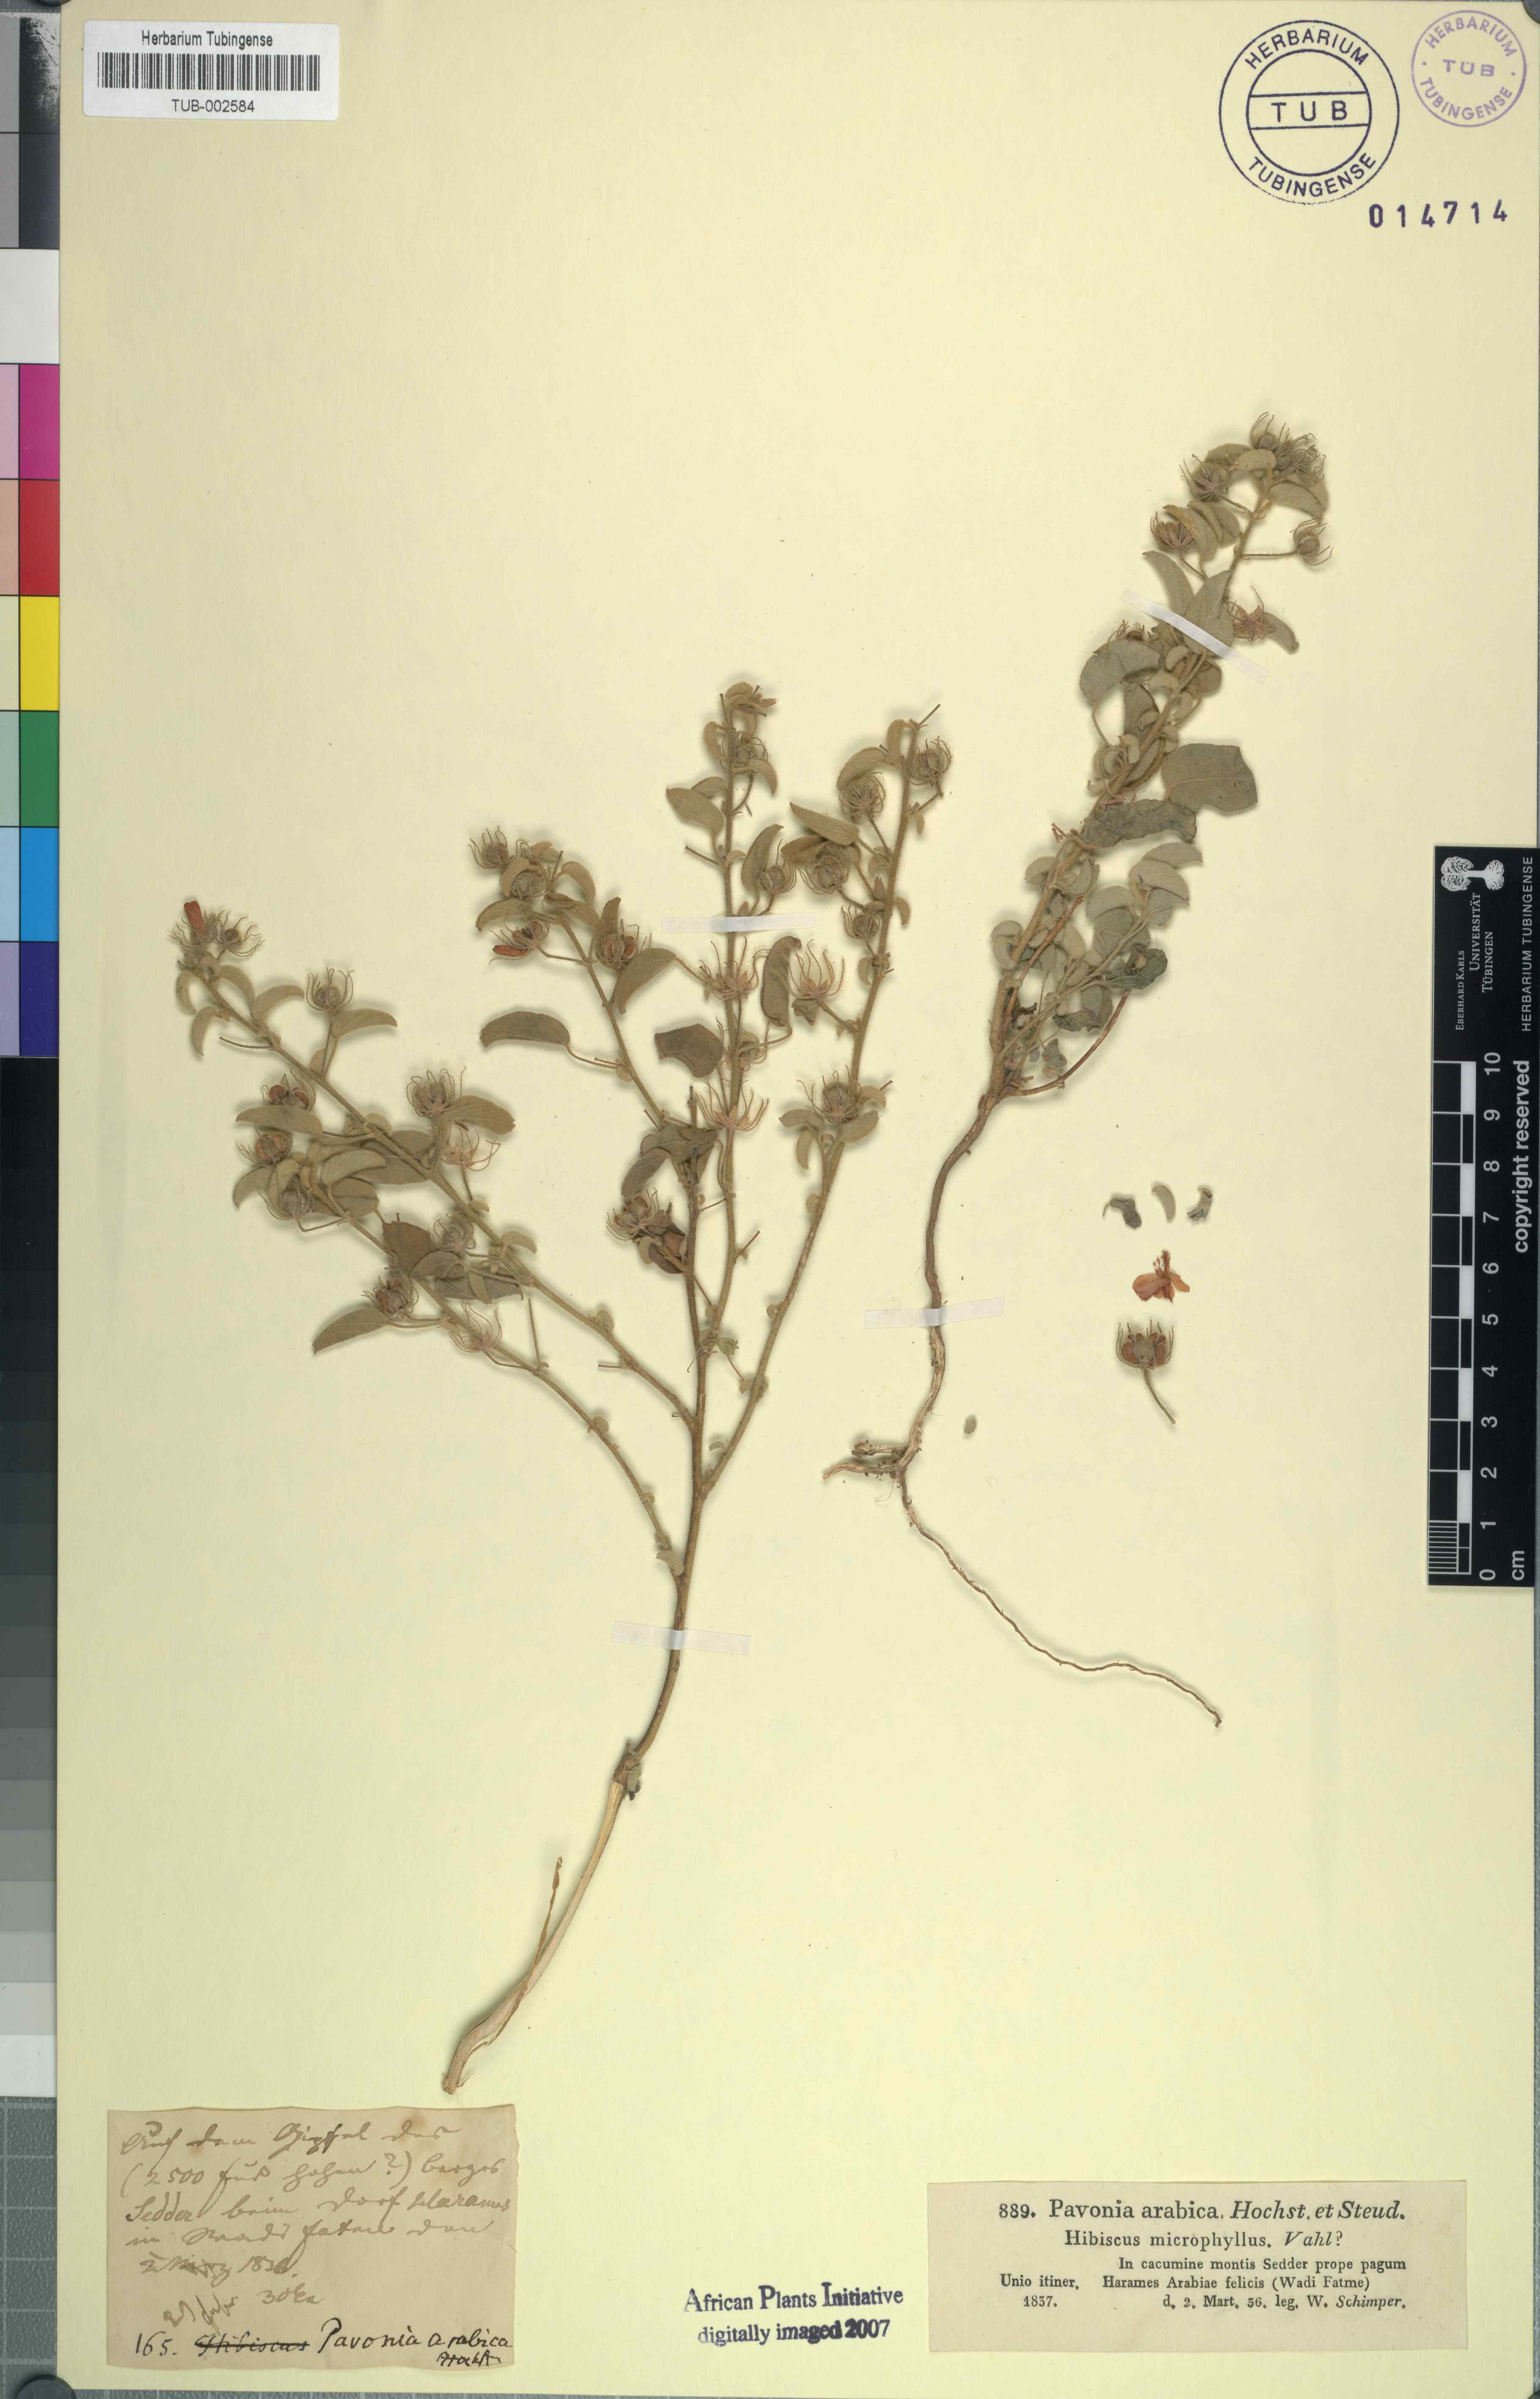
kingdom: Plantae
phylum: Tracheophyta
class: Magnoliopsida
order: Malvales
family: Malvaceae
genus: Pavonia
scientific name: Pavonia arabica
